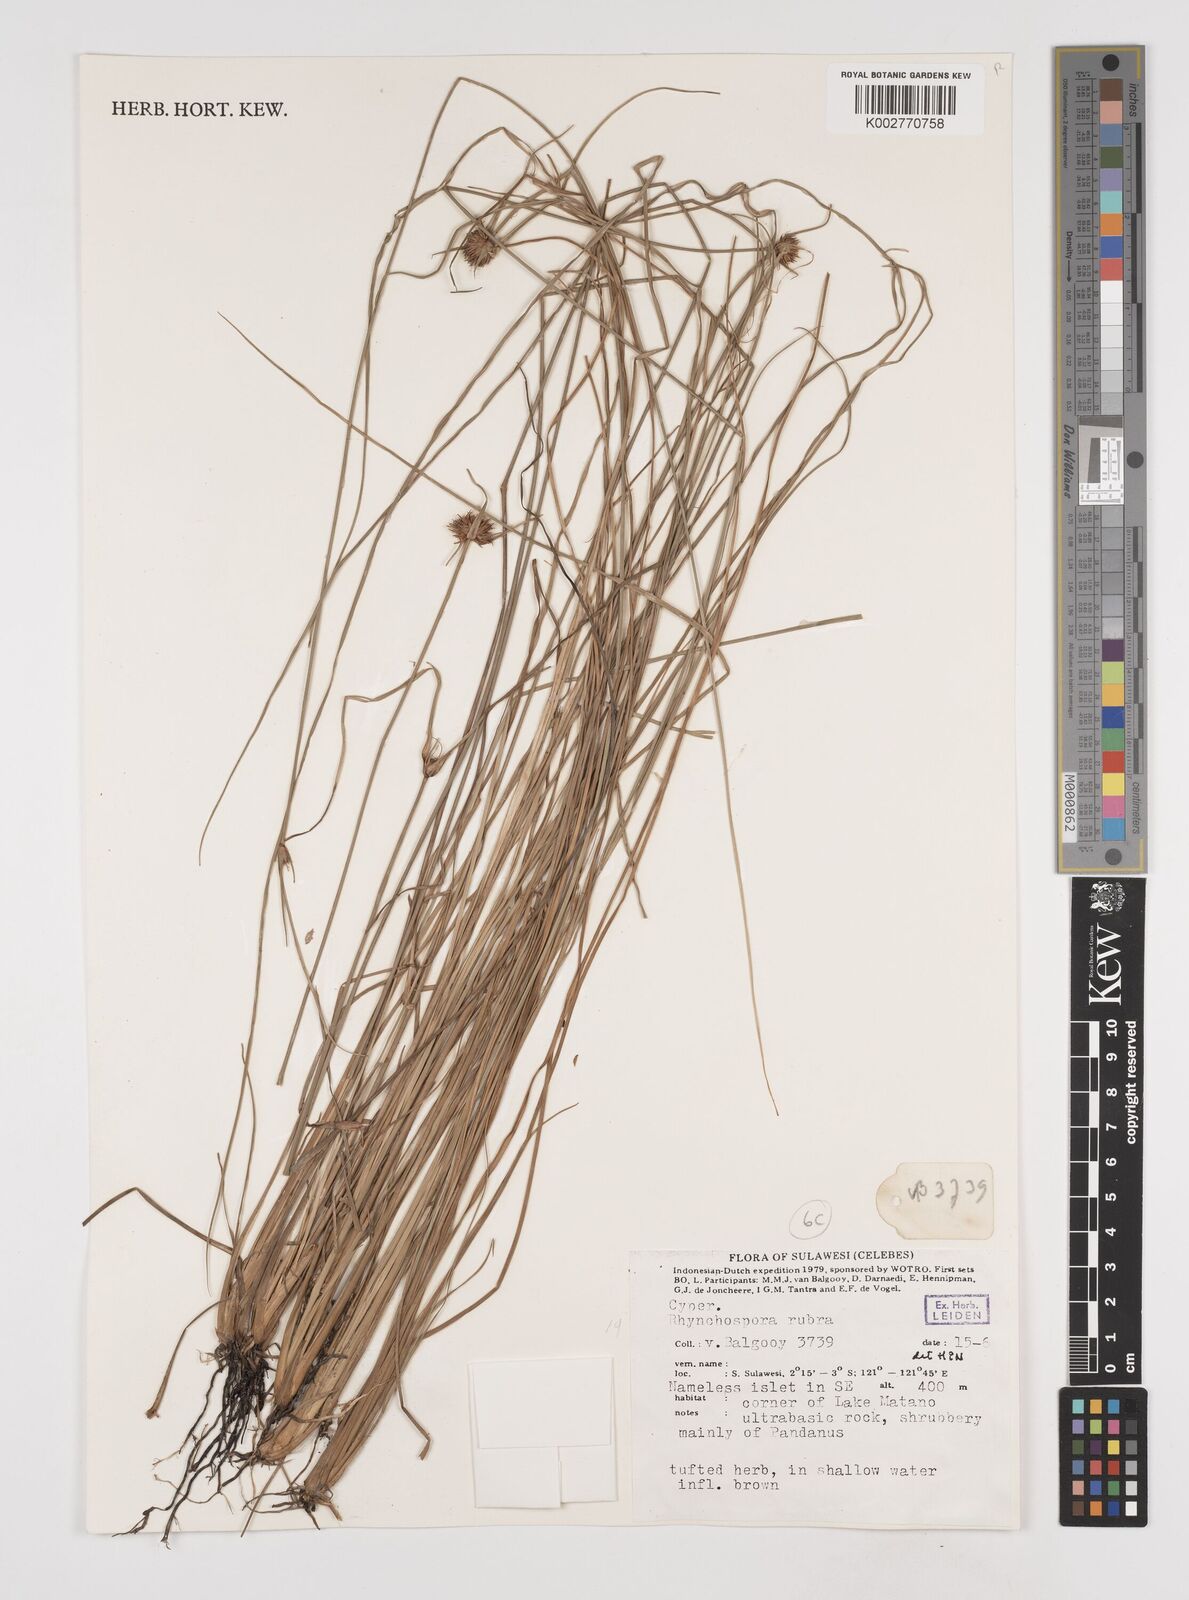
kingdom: Plantae
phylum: Tracheophyta
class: Liliopsida
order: Poales
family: Cyperaceae
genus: Rhynchospora
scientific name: Rhynchospora rubra
